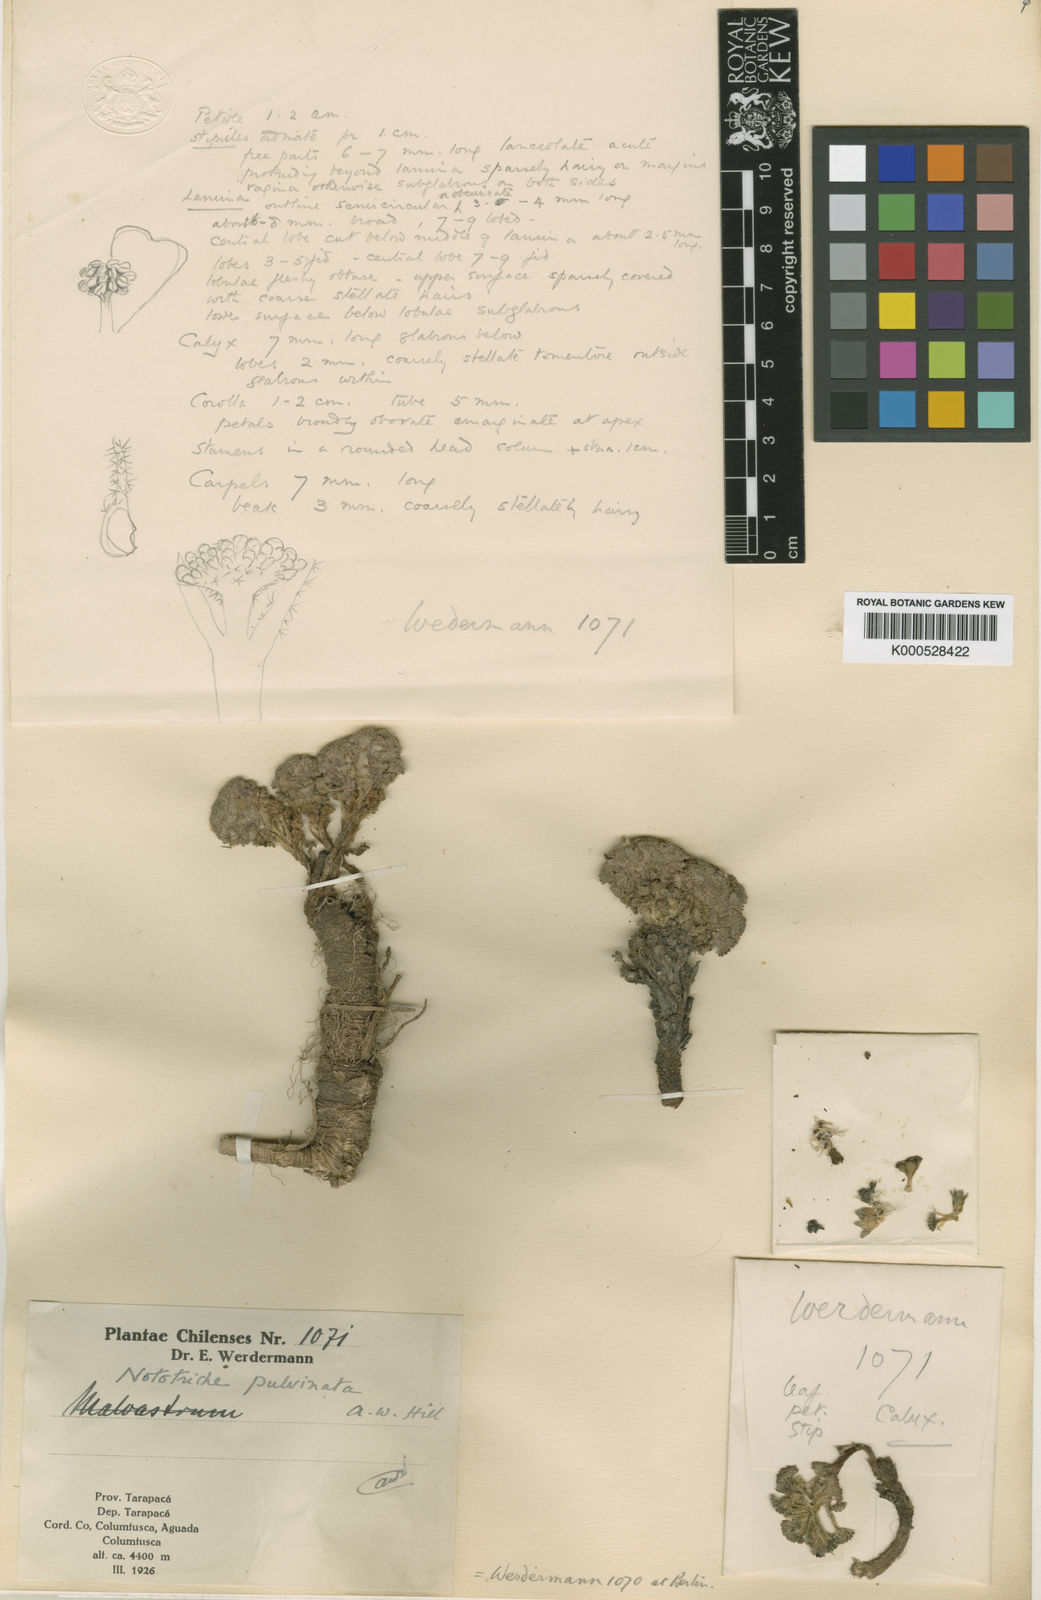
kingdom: Plantae
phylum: Tracheophyta
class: Magnoliopsida
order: Malvales
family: Malvaceae
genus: Nototriche
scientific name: Nototriche pulvinata
